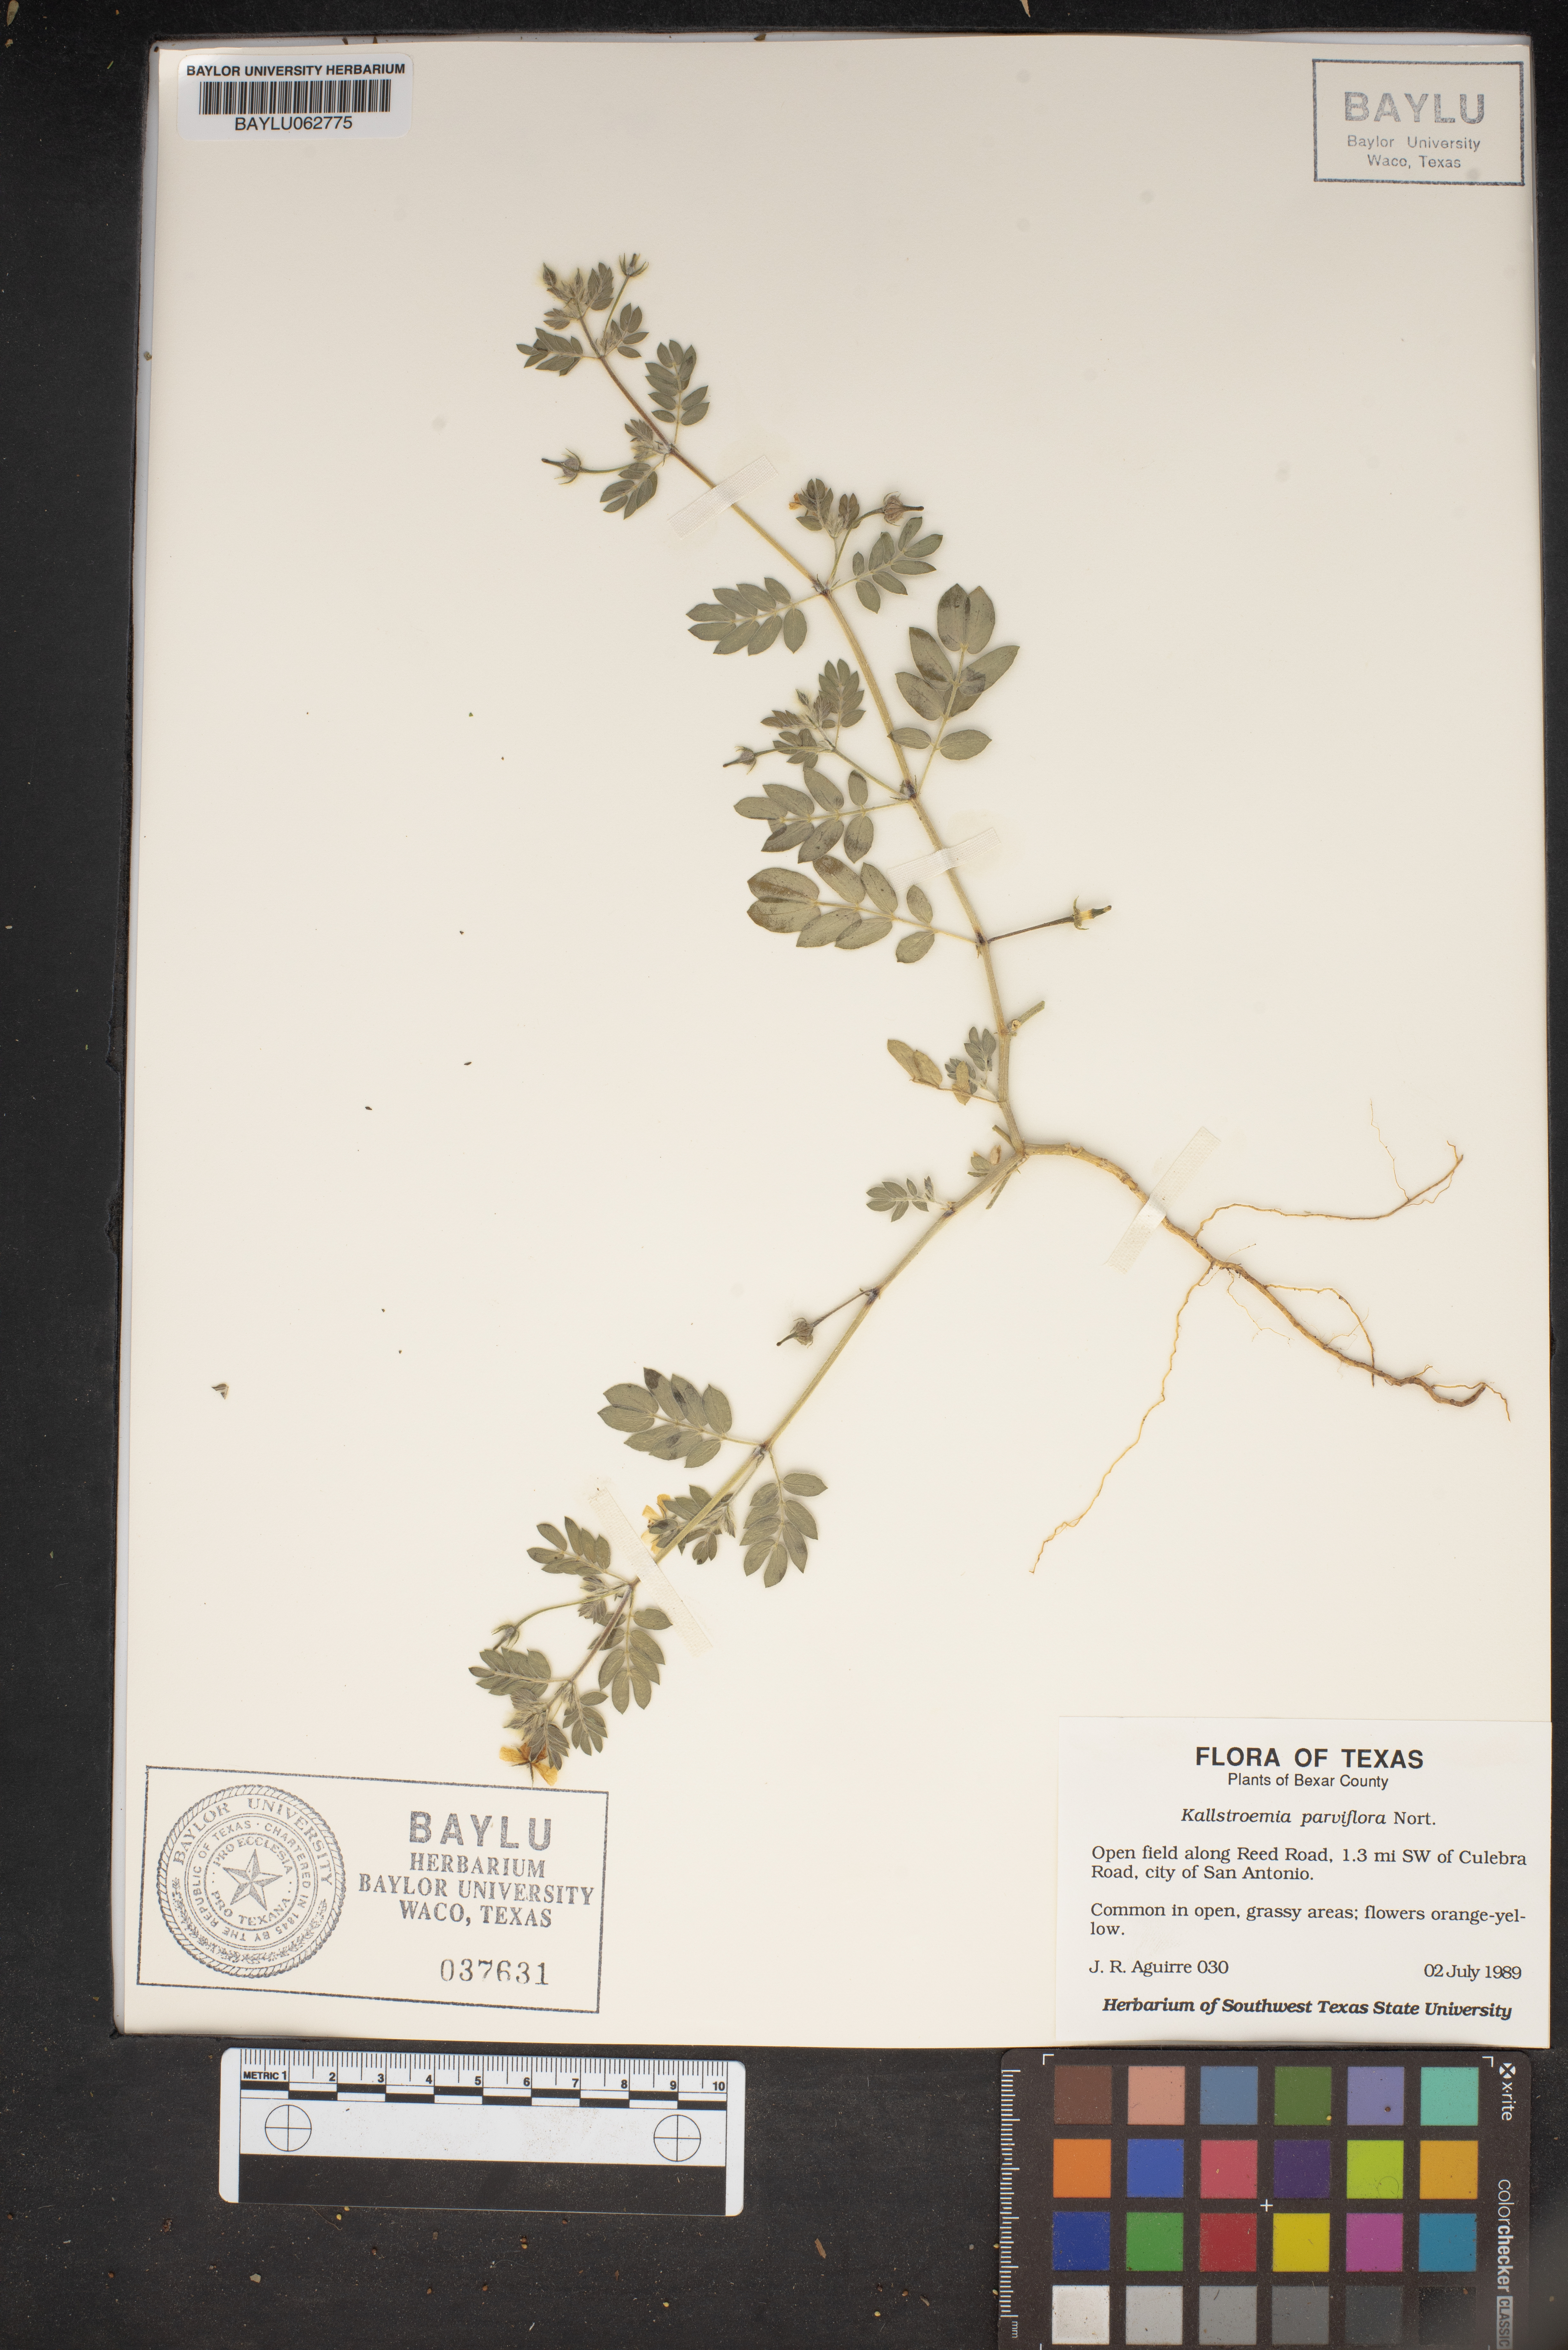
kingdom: Plantae
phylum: Tracheophyta
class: Magnoliopsida
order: Zygophyllales
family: Zygophyllaceae
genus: Kallstroemia
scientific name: Kallstroemia parviflora
